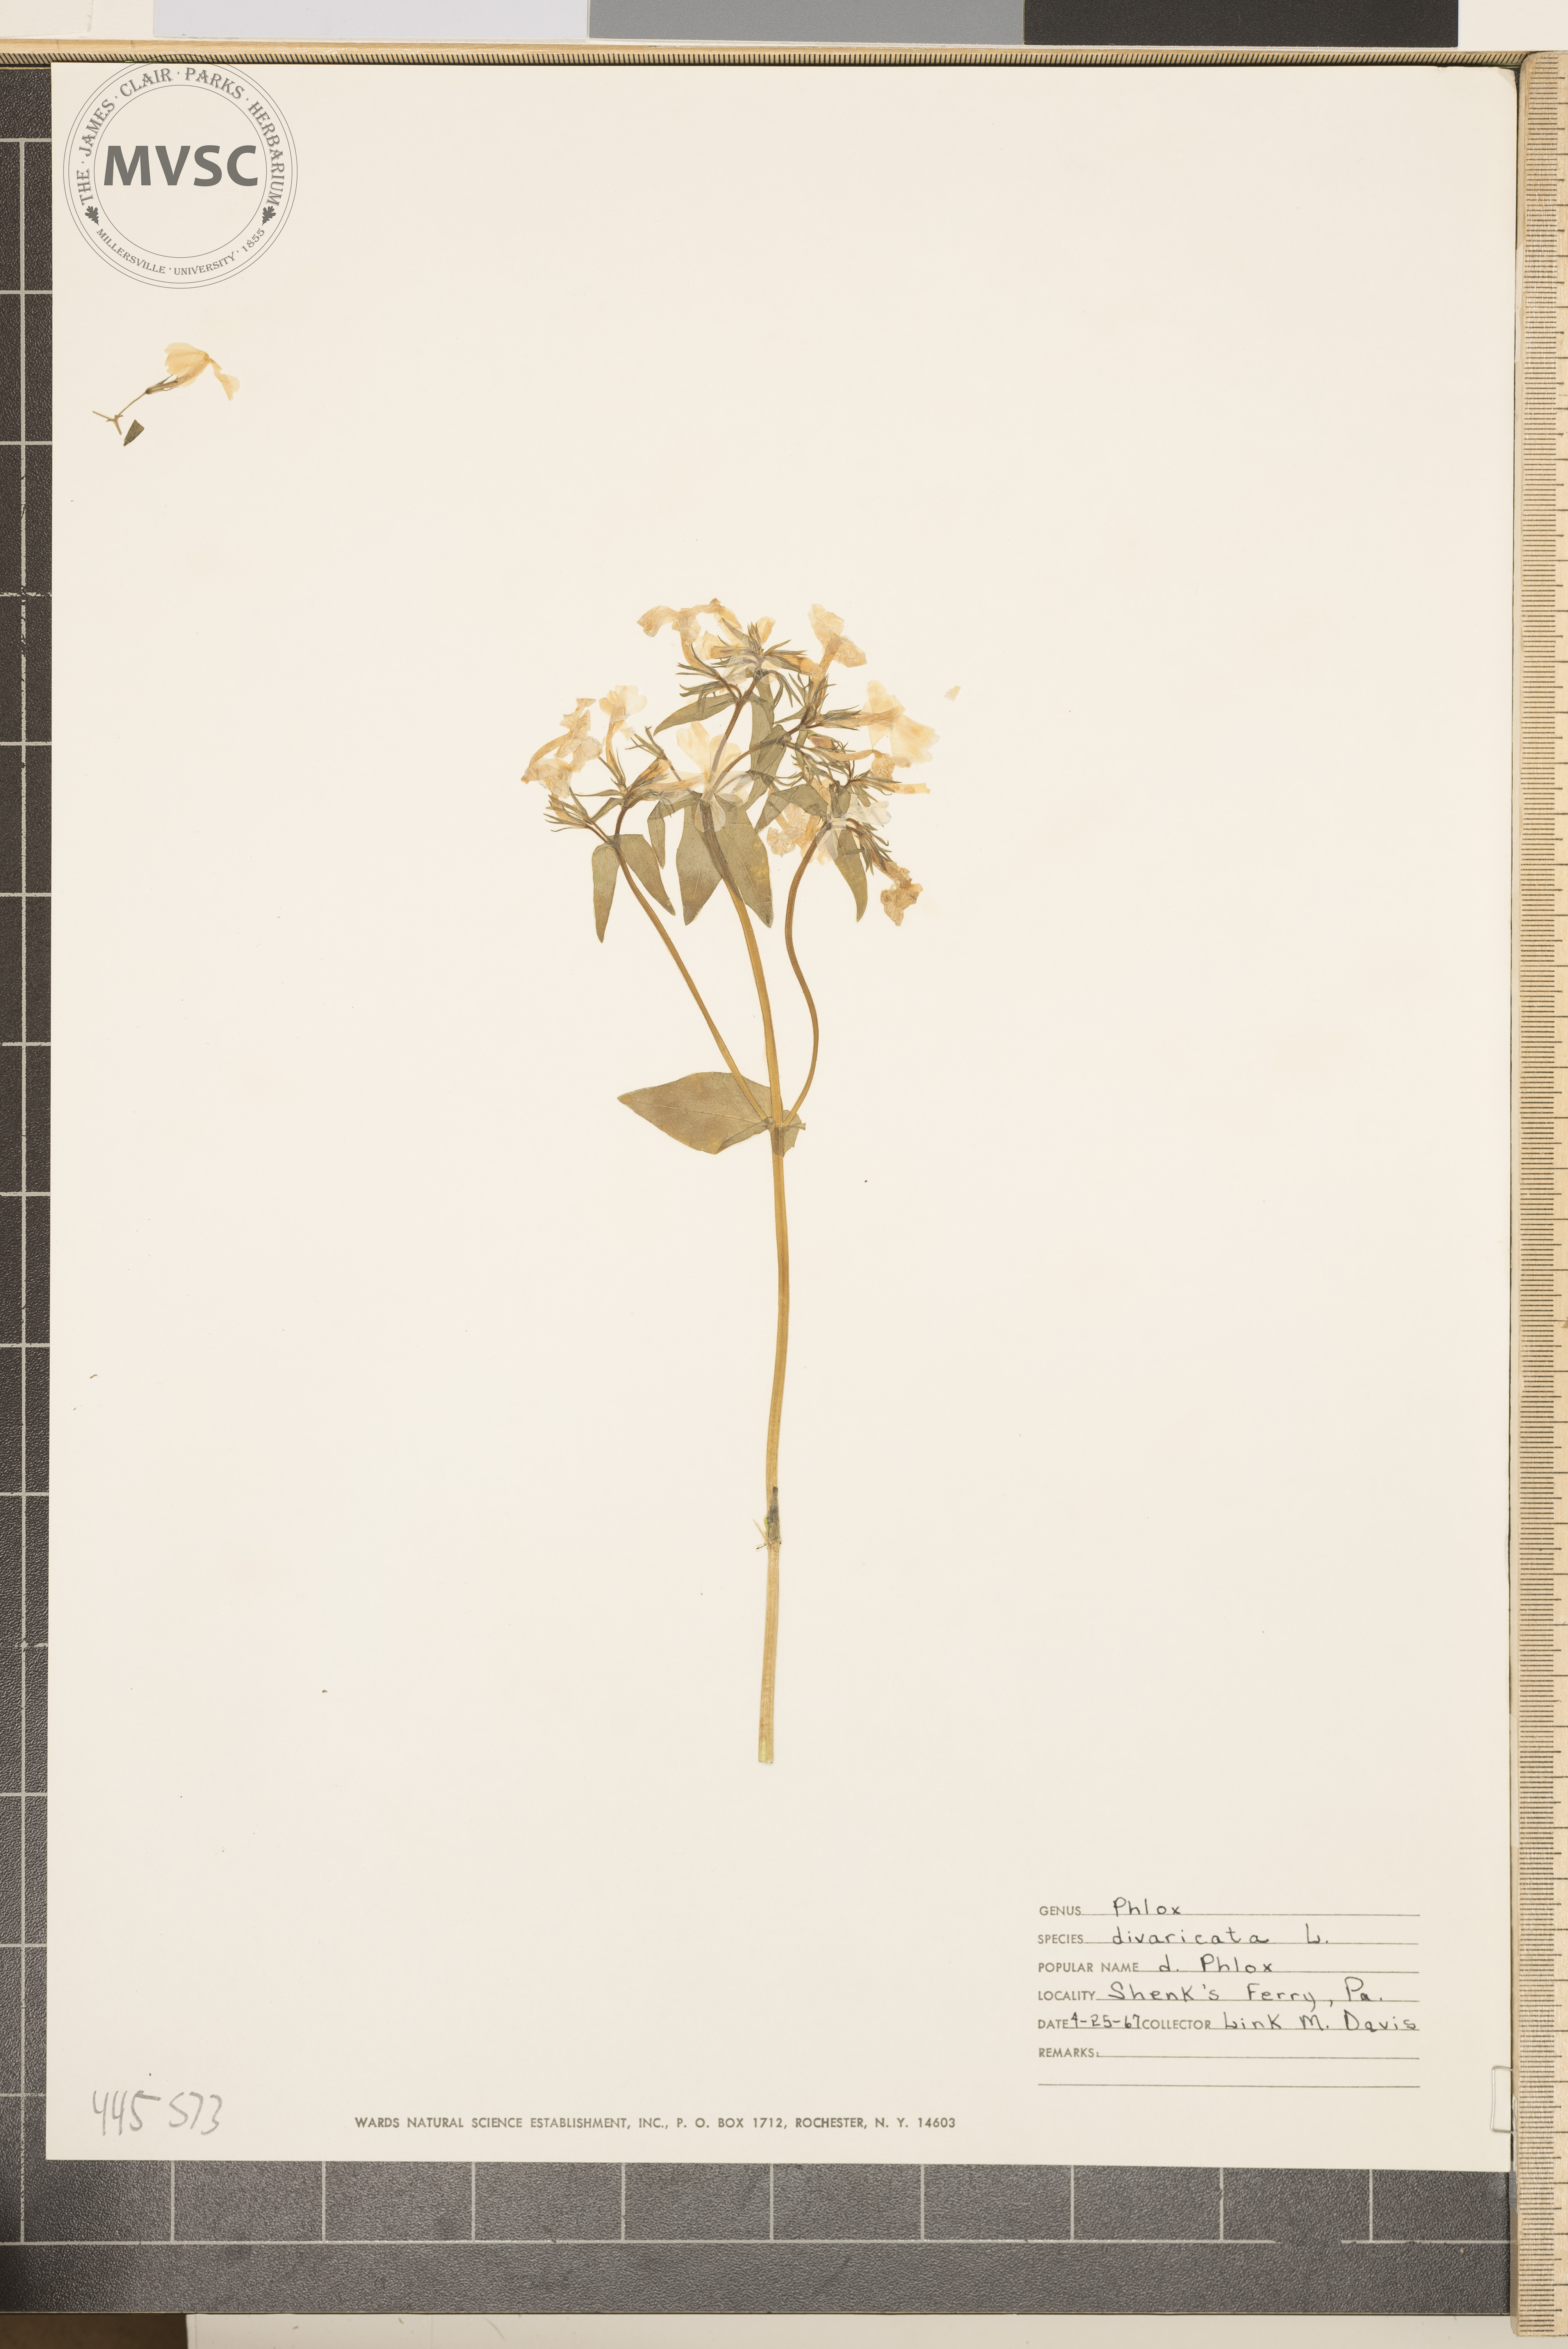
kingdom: Plantae
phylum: Tracheophyta
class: Magnoliopsida
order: Ericales
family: Polemoniaceae
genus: Phlox
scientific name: Phlox divaricata
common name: Blue phlox
